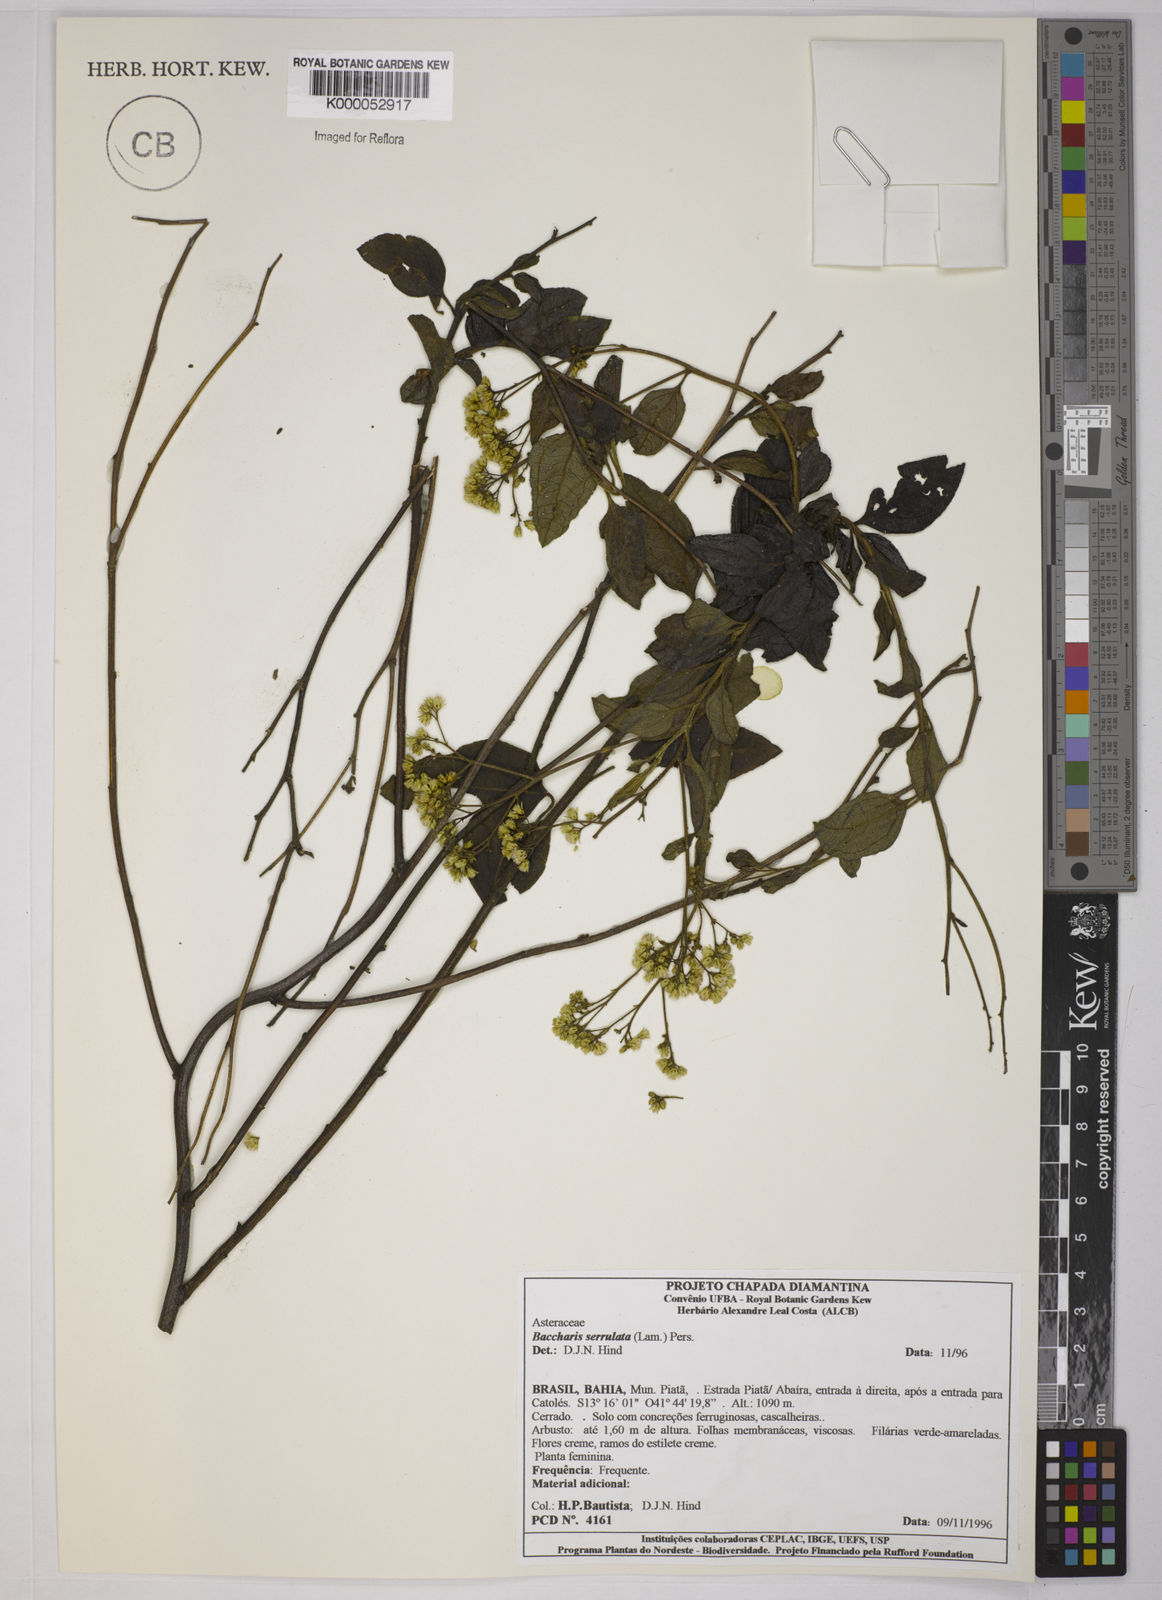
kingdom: Plantae
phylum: Tracheophyta
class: Magnoliopsida
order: Asterales
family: Asteraceae
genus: Baccharis
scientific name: Baccharis serrulata
